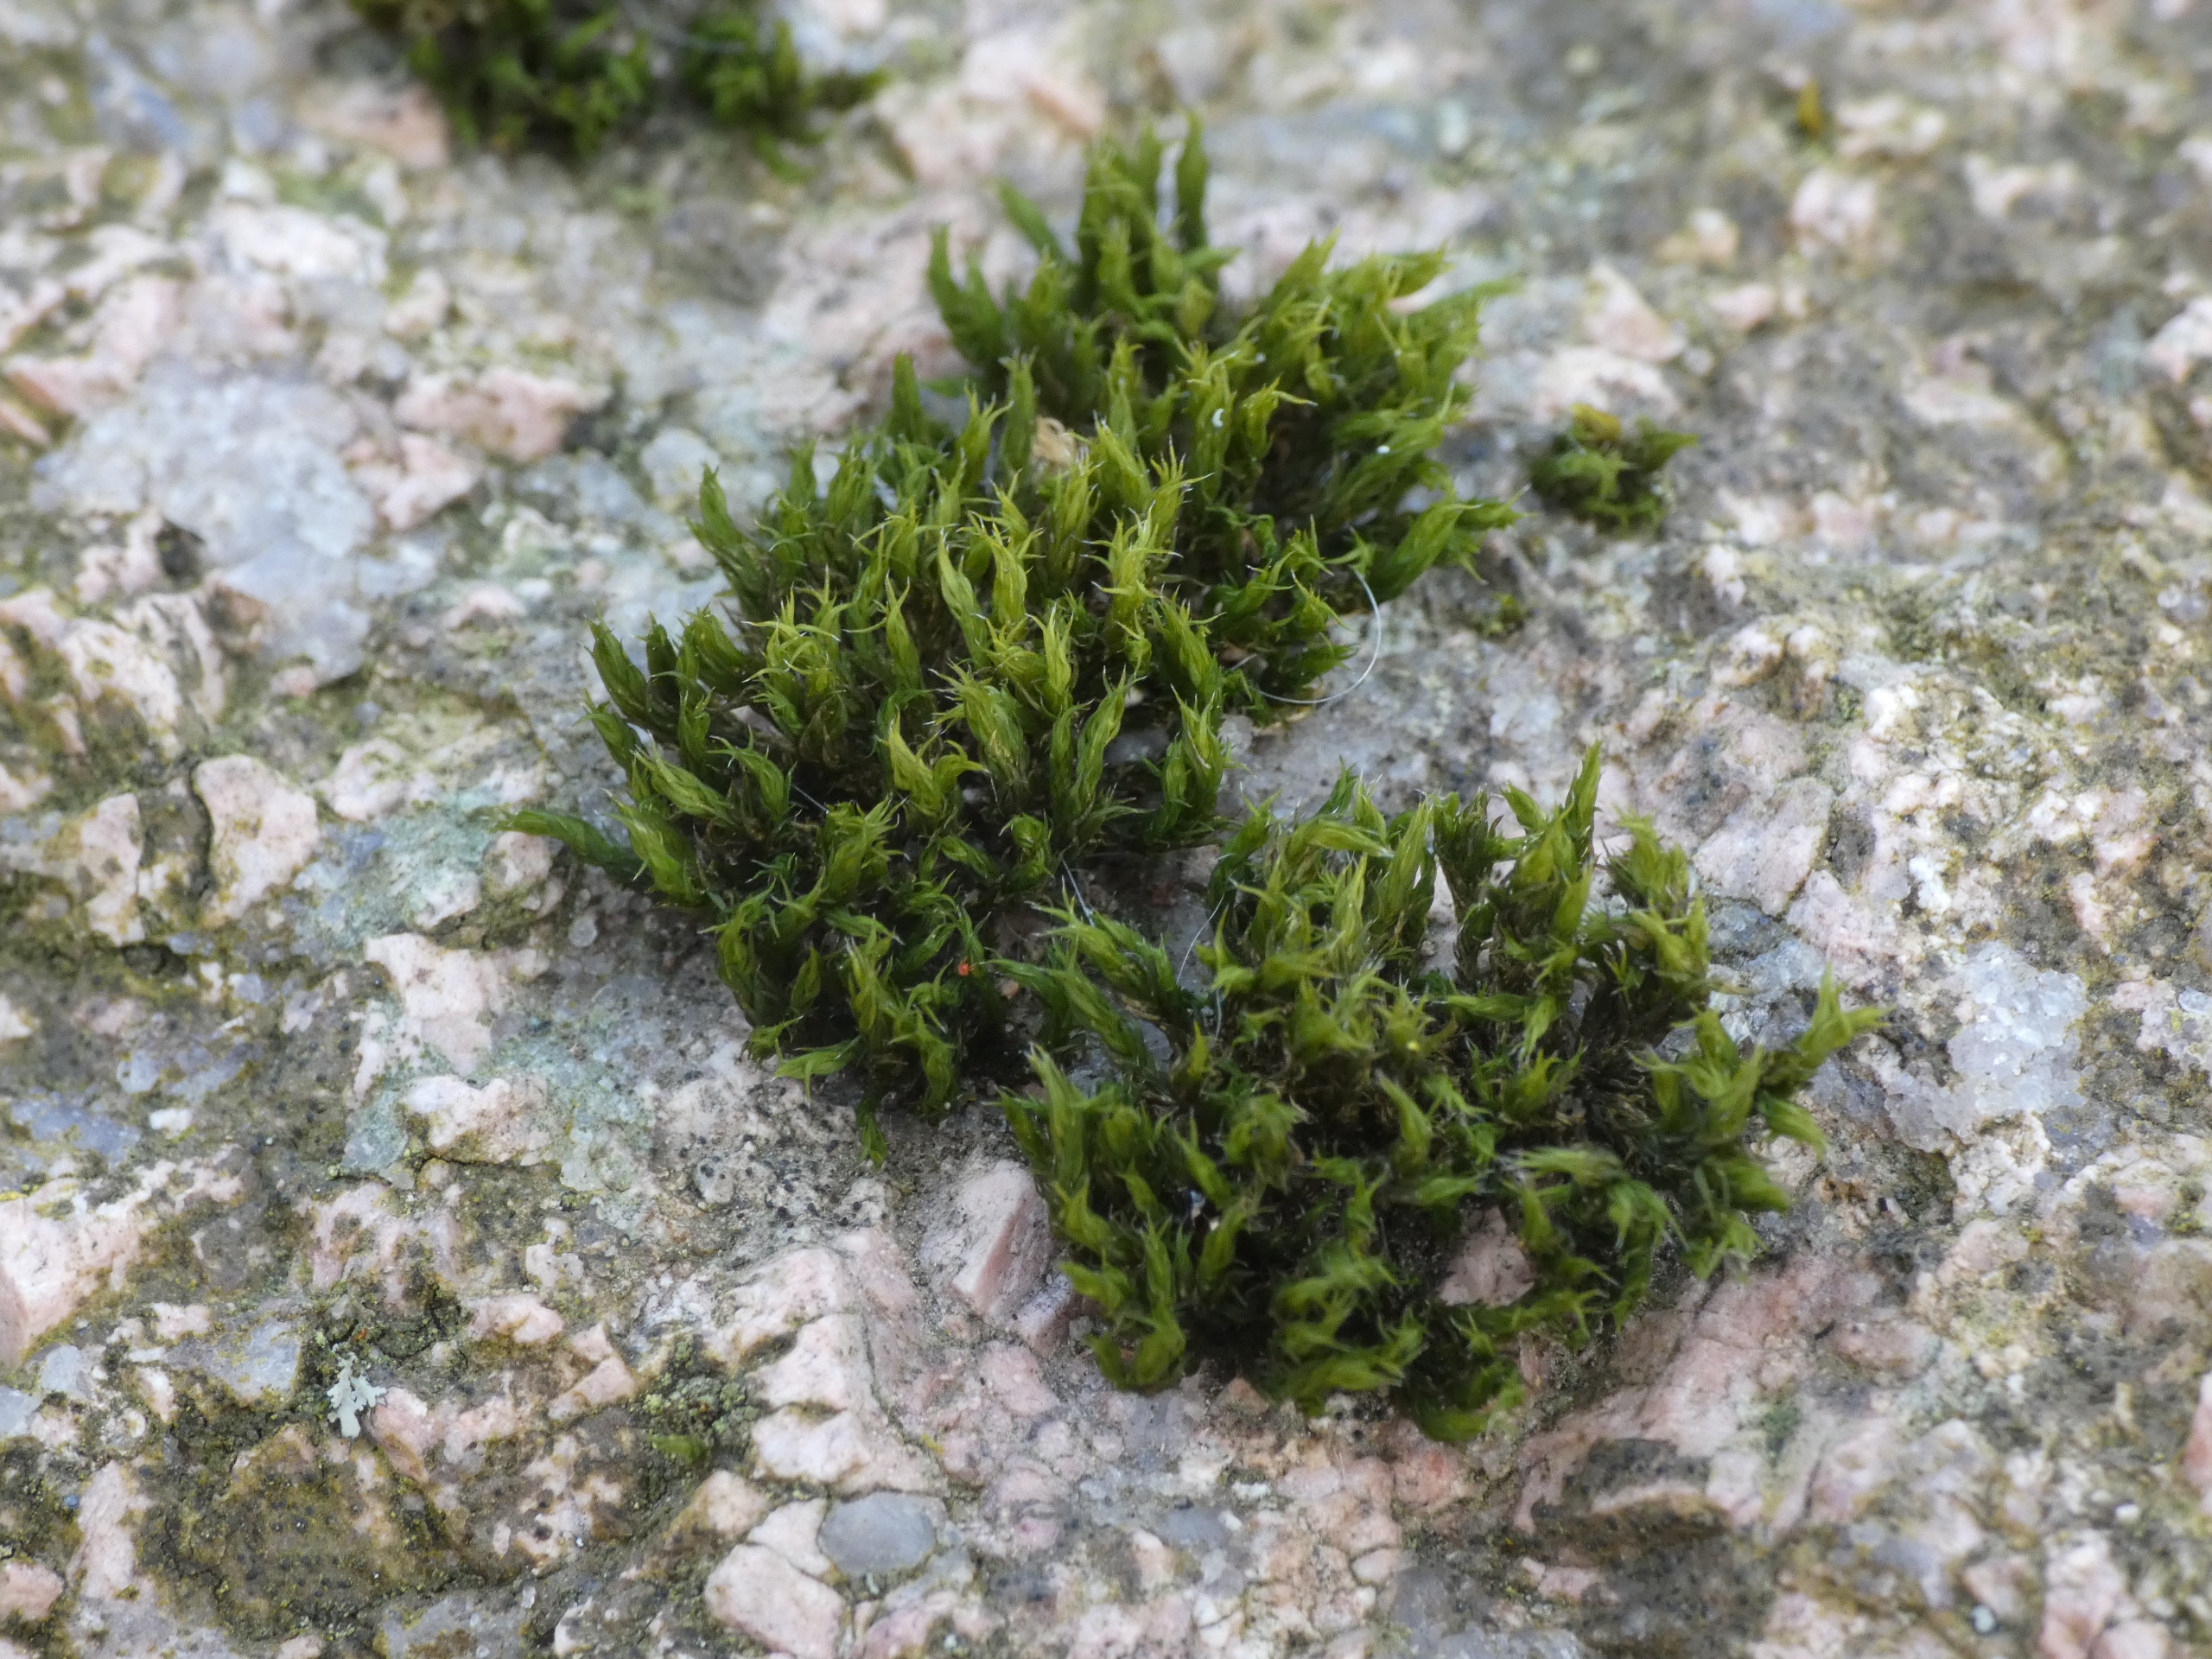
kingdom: Plantae
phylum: Bryophyta
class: Bryopsida
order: Grimmiales
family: Grimmiaceae
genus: Grimmia
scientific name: Grimmia hartmanii
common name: Hartmans gråmos
